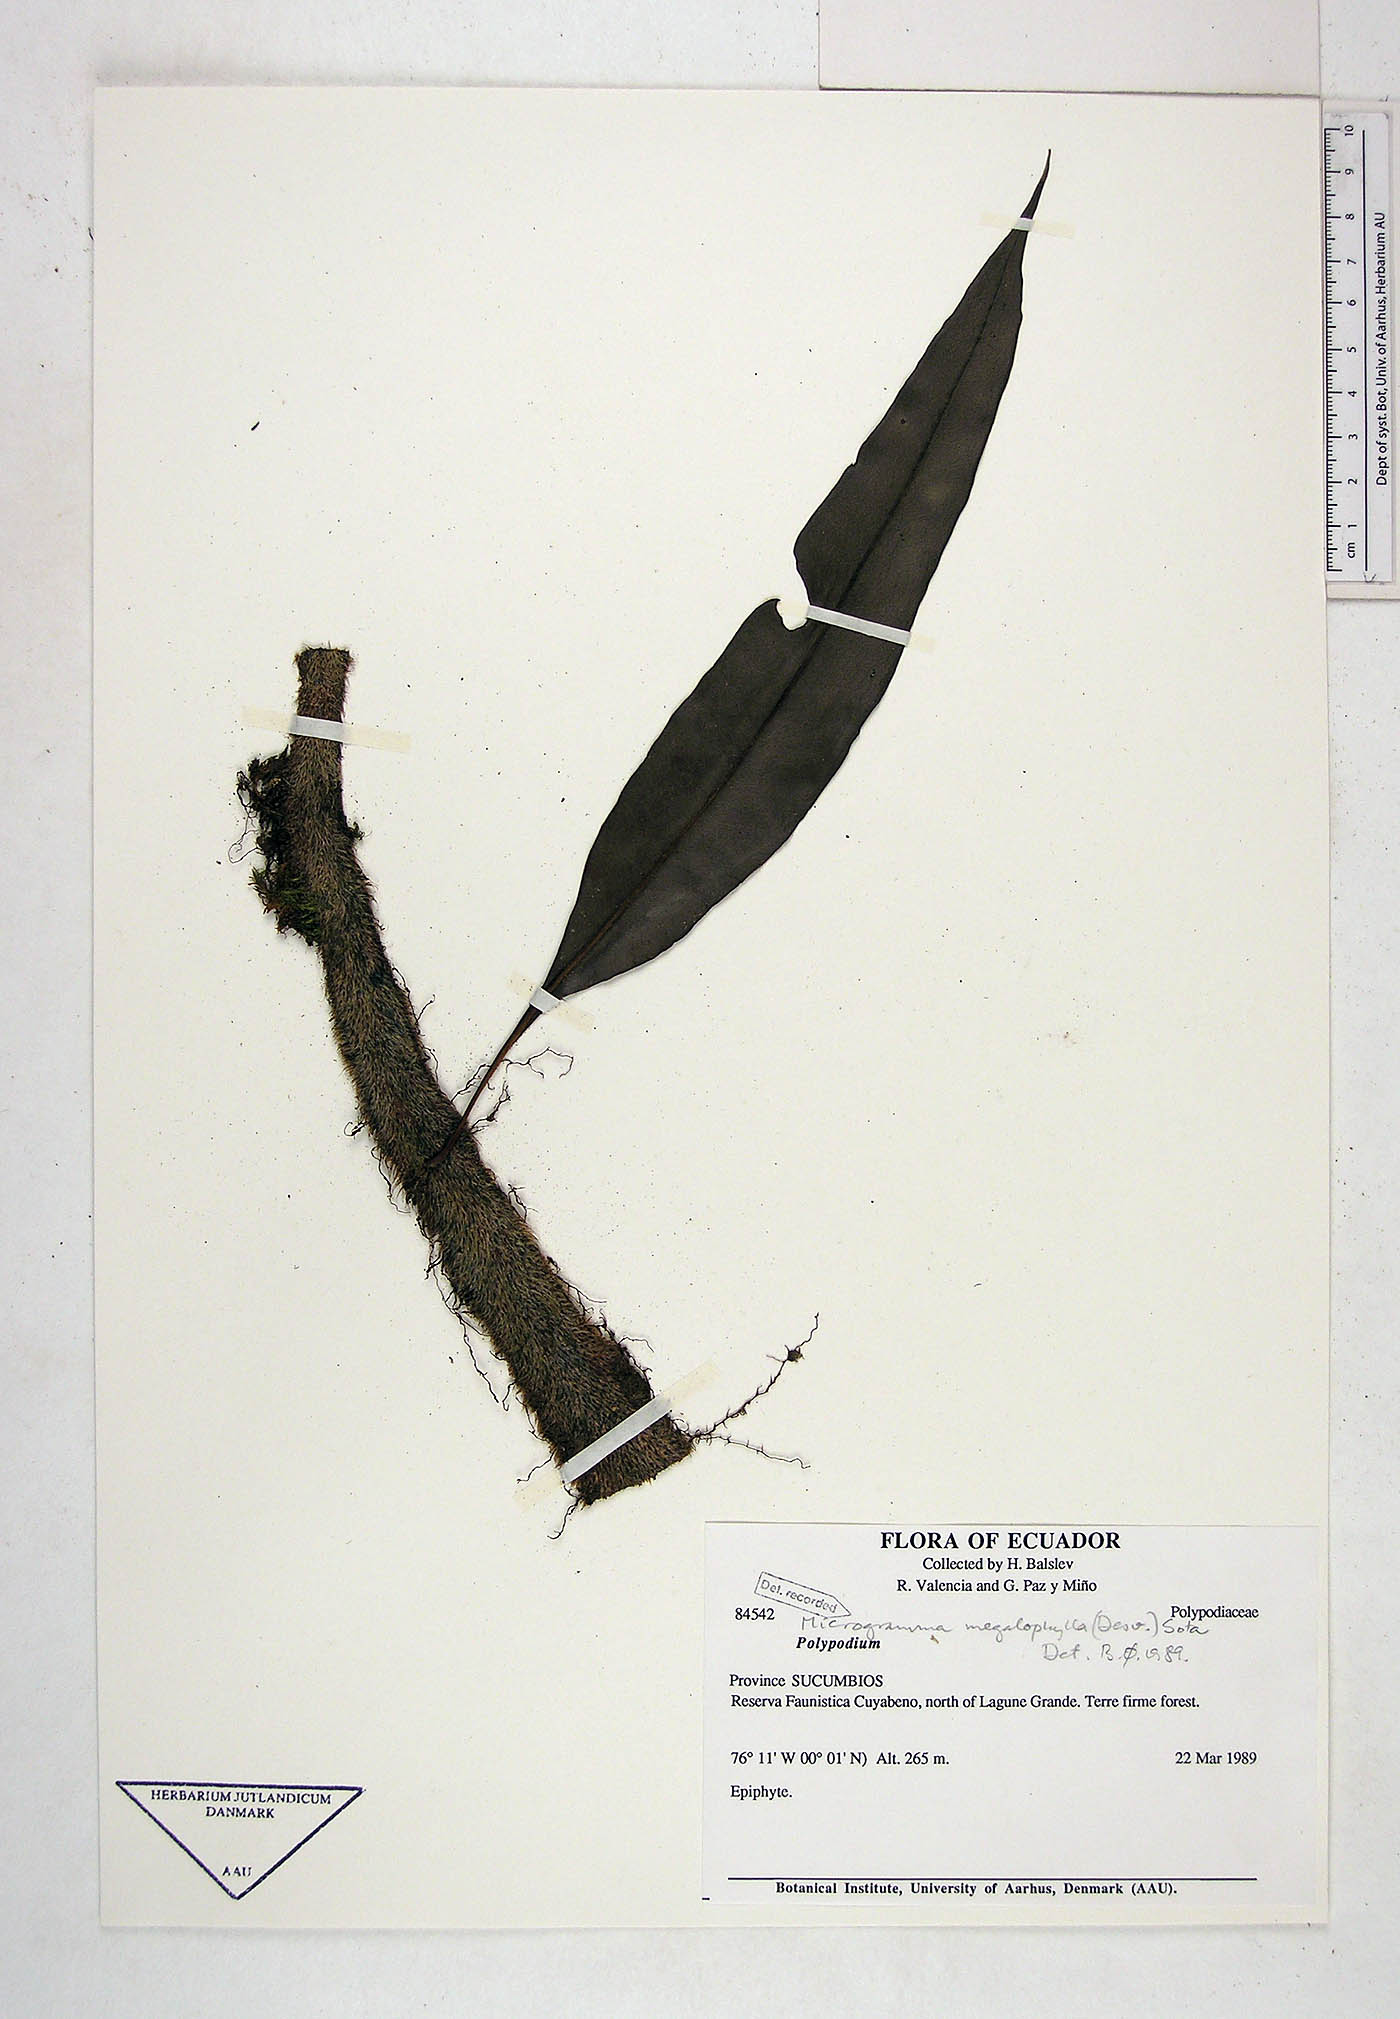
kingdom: Plantae
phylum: Tracheophyta
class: Polypodiopsida
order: Polypodiales
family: Polypodiaceae
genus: Microgramma
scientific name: Microgramma megalophylla
